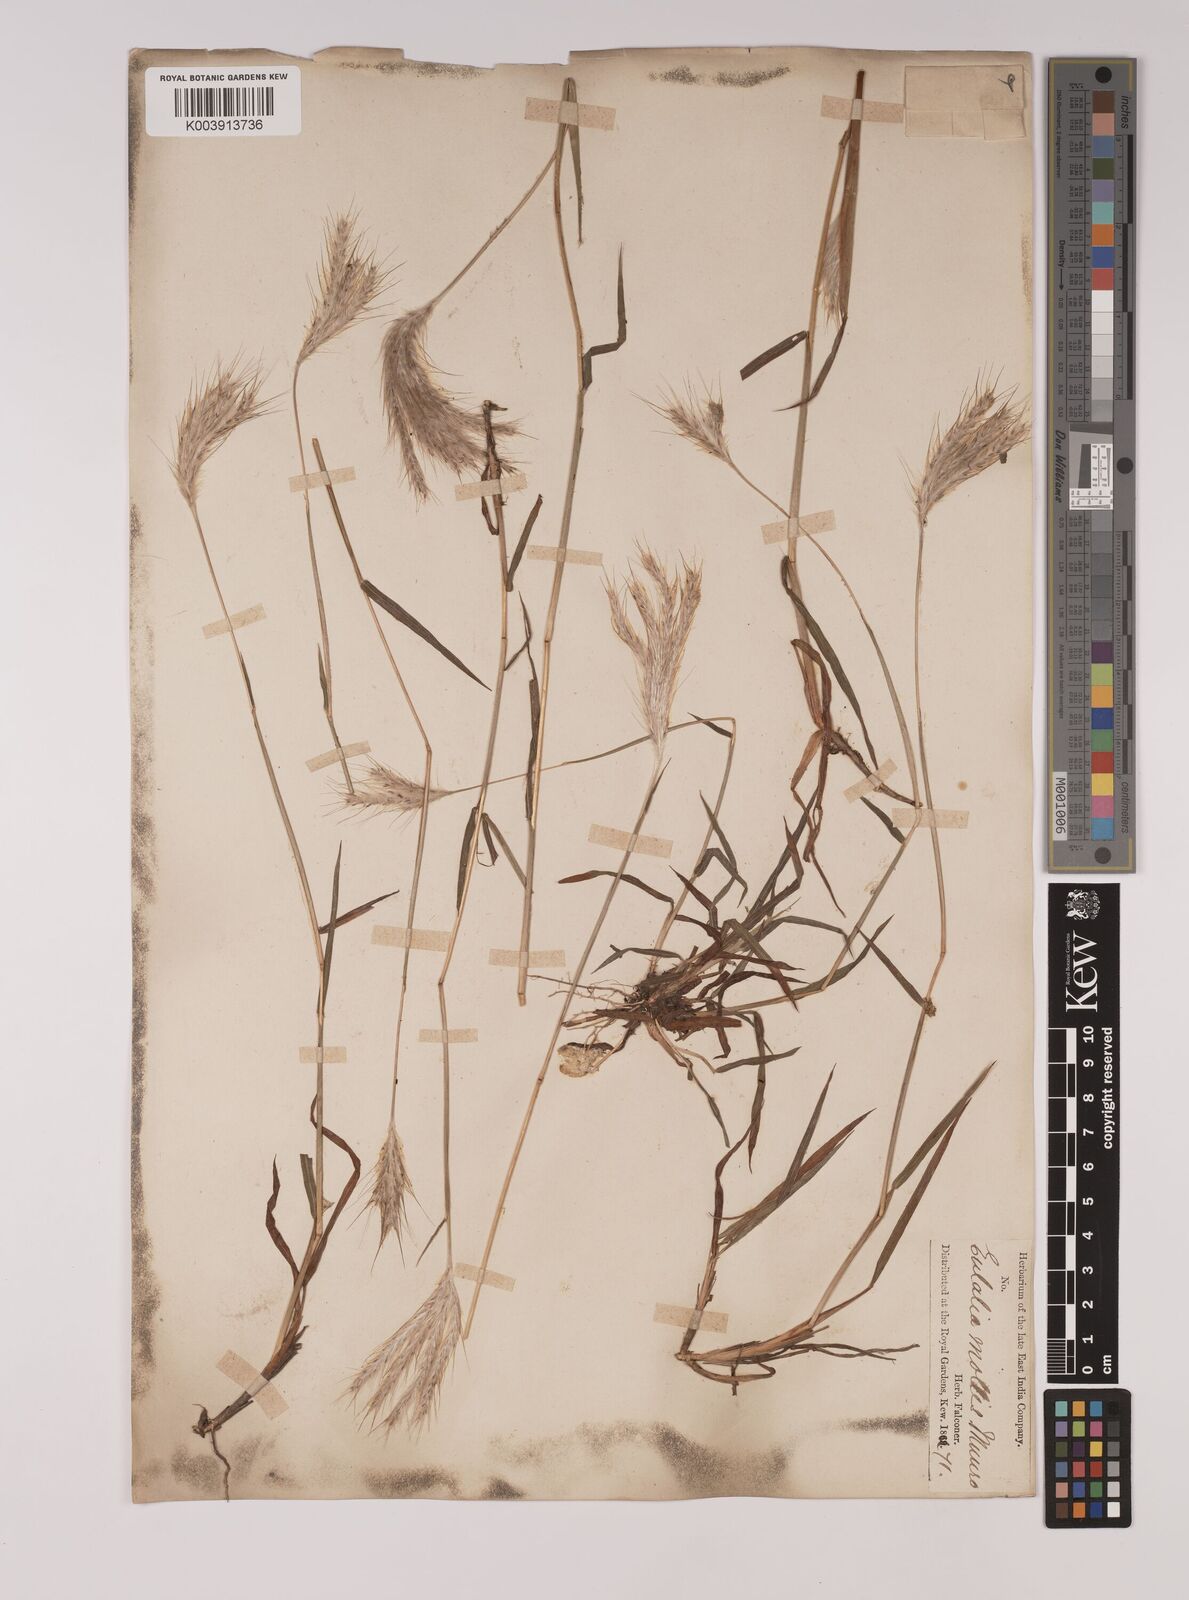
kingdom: Plantae
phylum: Tracheophyta
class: Liliopsida
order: Poales
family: Poaceae
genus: Eulalia
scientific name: Eulalia mollis
